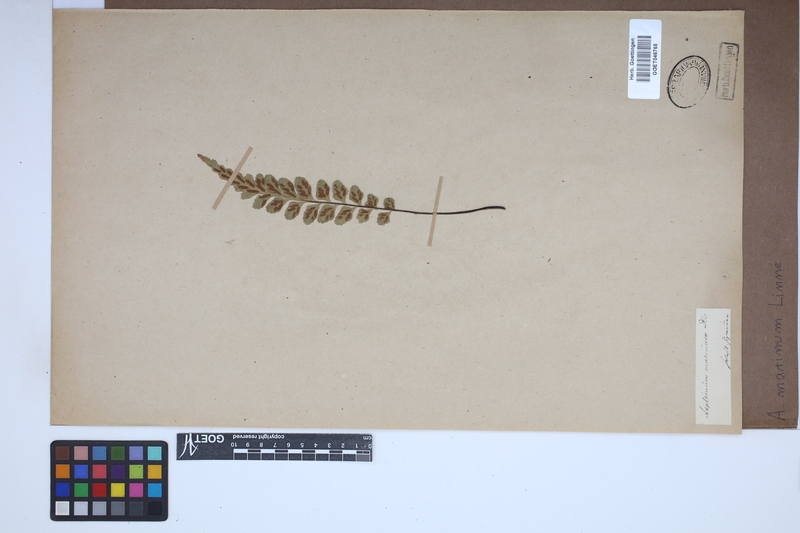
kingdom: Plantae
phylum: Tracheophyta
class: Polypodiopsida
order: Polypodiales
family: Aspleniaceae
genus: Asplenium
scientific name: Asplenium marinum
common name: Sea spleenwort
